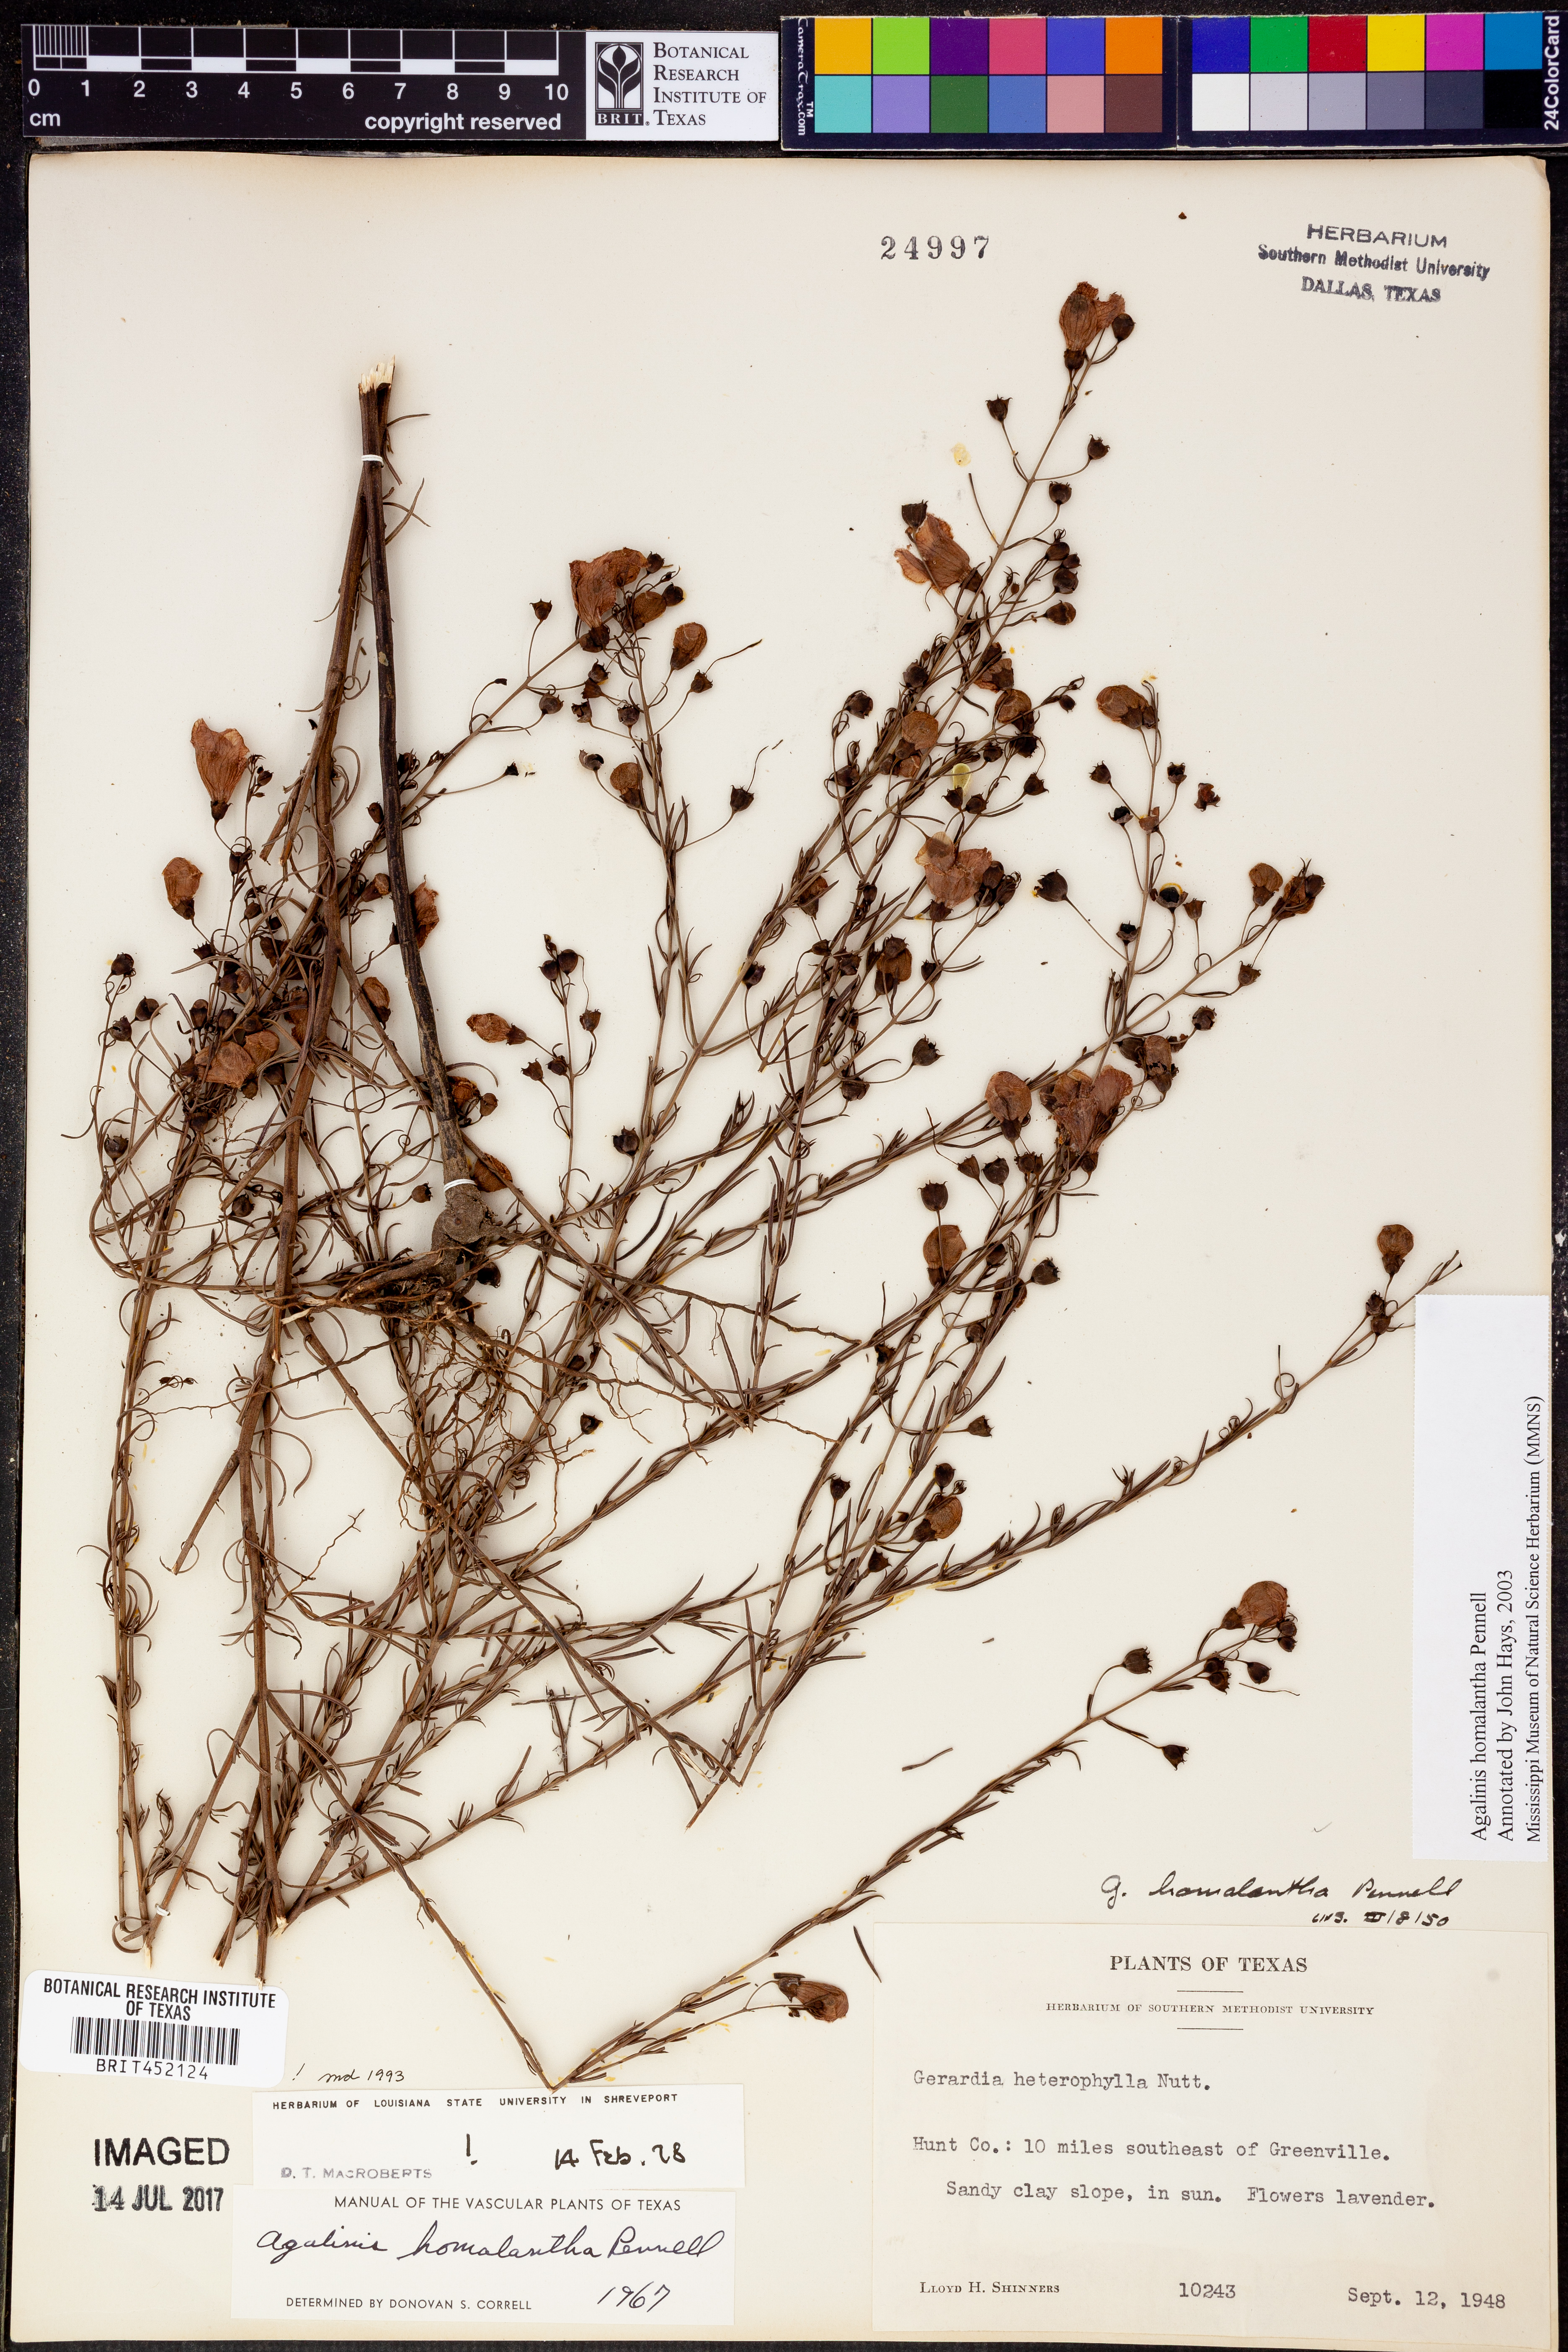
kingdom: Plantae
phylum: Tracheophyta
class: Magnoliopsida
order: Lamiales
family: Orobanchaceae
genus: Agalinis
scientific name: Agalinis homalantha
